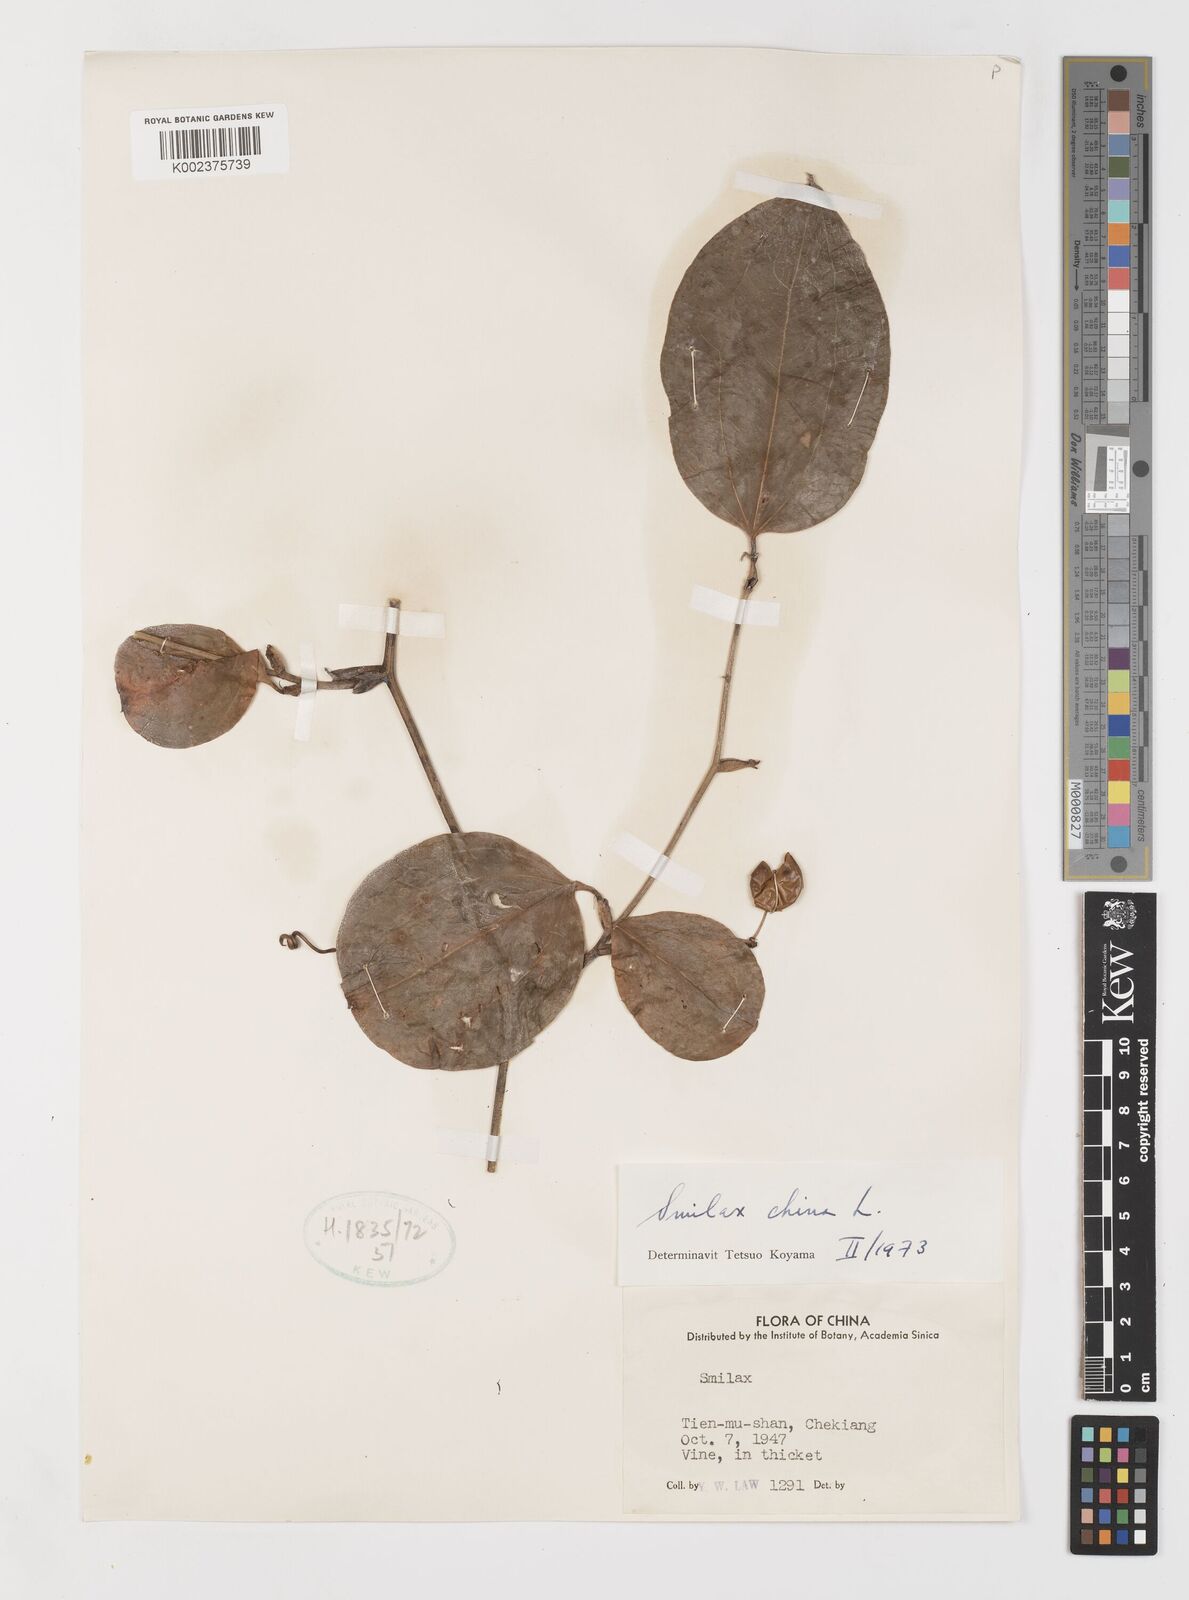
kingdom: Plantae
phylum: Tracheophyta
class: Liliopsida
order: Liliales
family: Smilacaceae
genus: Smilax
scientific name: Smilax china
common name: Chinaroot
